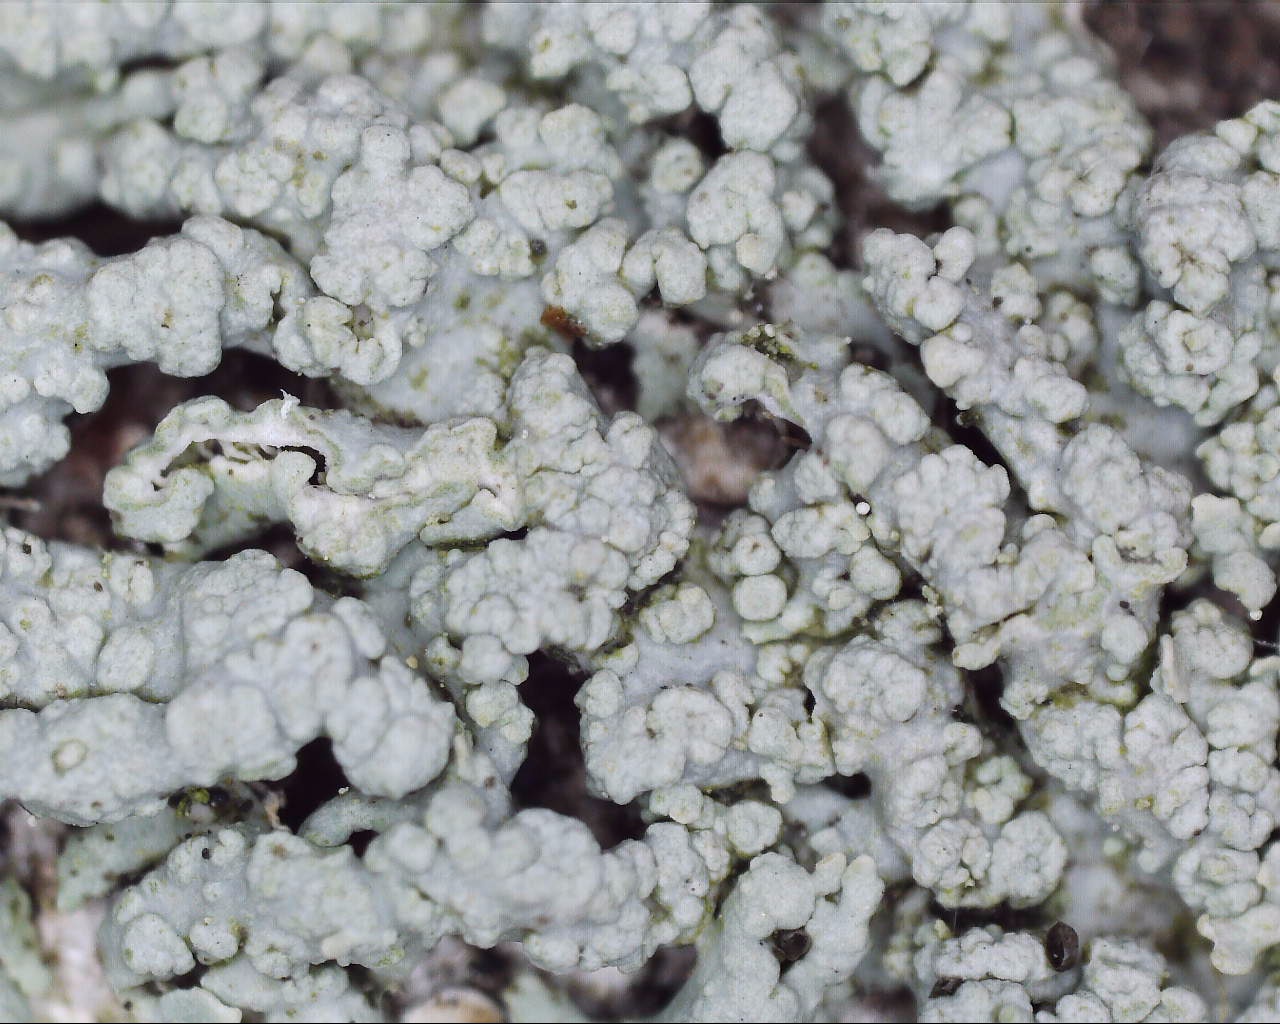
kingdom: Fungi
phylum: Ascomycota
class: Lecanoromycetes
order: Caliciales
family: Physciaceae
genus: Physcia
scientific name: Physcia stellaris
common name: stjerneformet rosetlav
